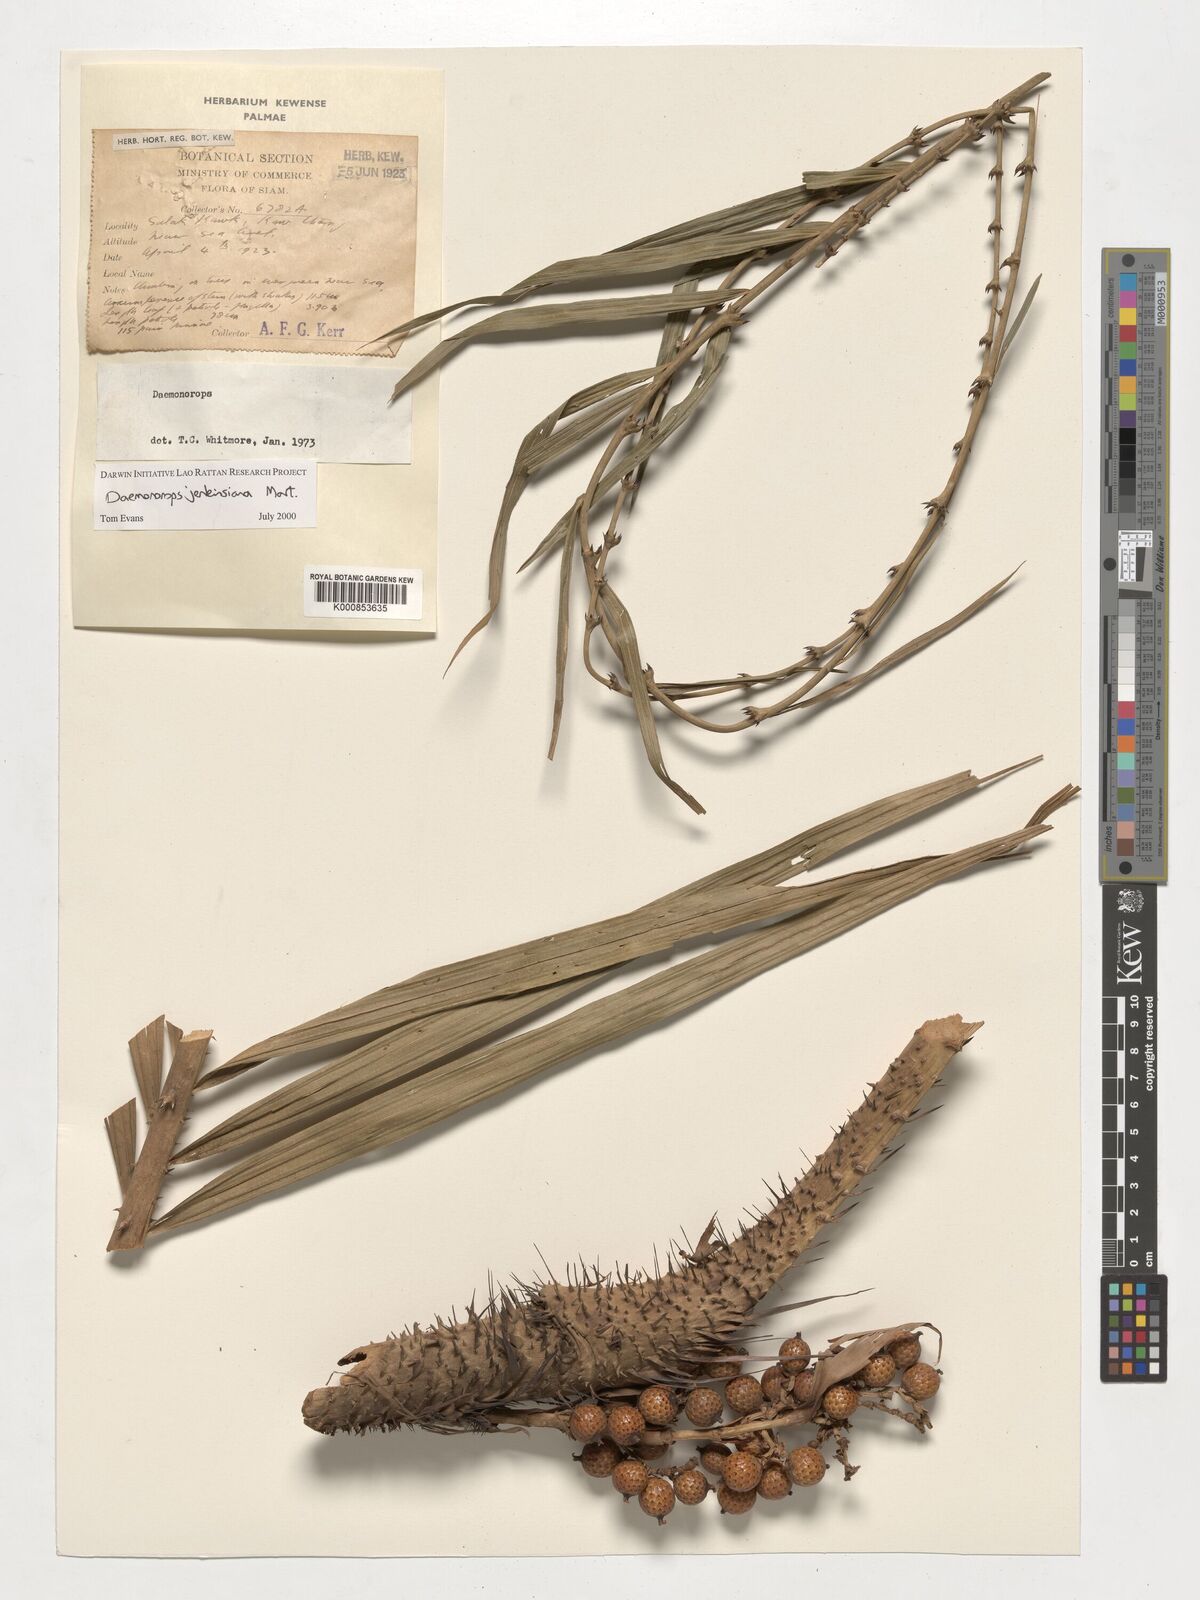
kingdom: Plantae
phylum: Tracheophyta
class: Liliopsida
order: Arecales
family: Arecaceae
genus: Calamus
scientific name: Calamus melanochaetes
